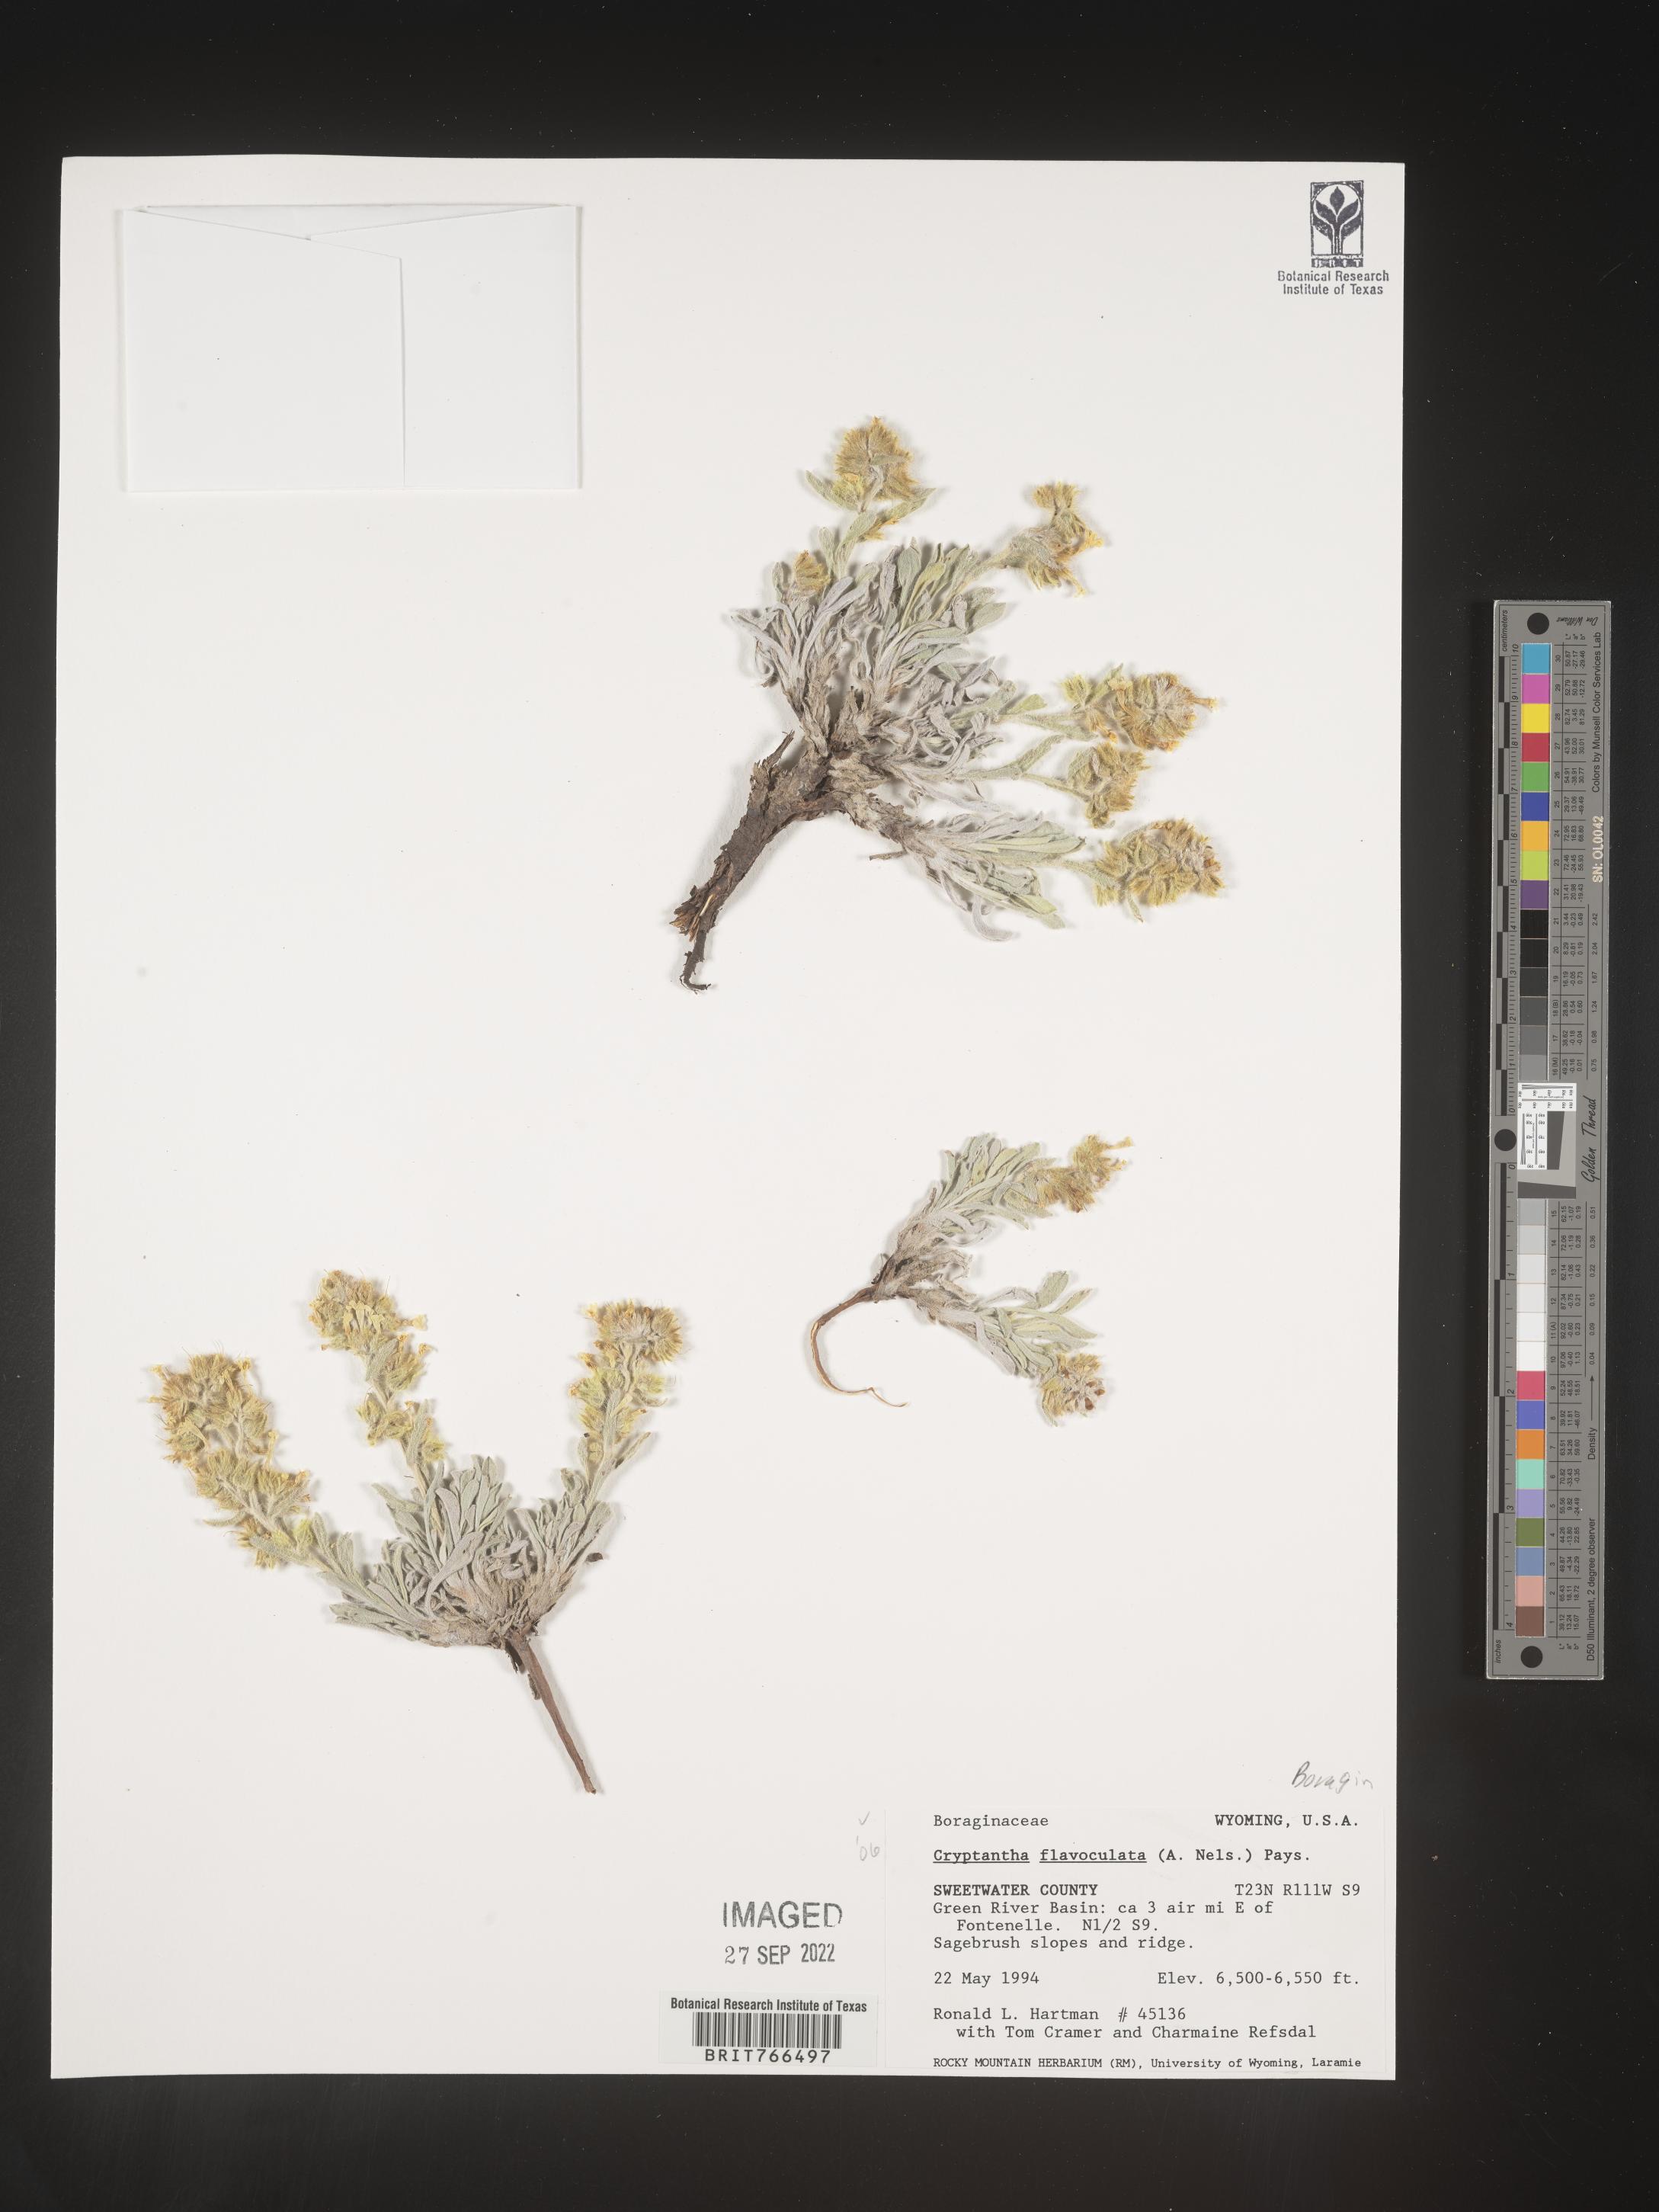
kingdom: Plantae
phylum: Tracheophyta
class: Magnoliopsida
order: Boraginales
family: Boraginaceae
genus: Oreocarya
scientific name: Oreocarya flavoculata
